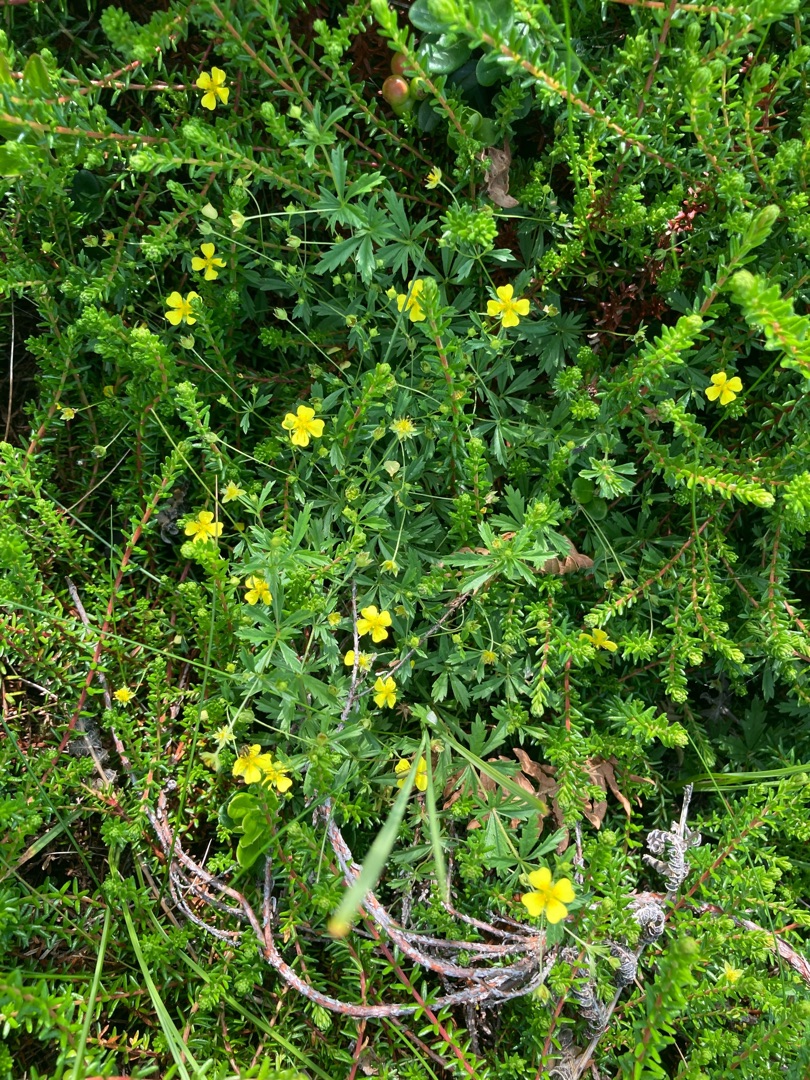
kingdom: Plantae
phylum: Tracheophyta
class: Magnoliopsida
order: Rosales
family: Rosaceae
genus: Potentilla
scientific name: Potentilla erecta
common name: Tormentil
